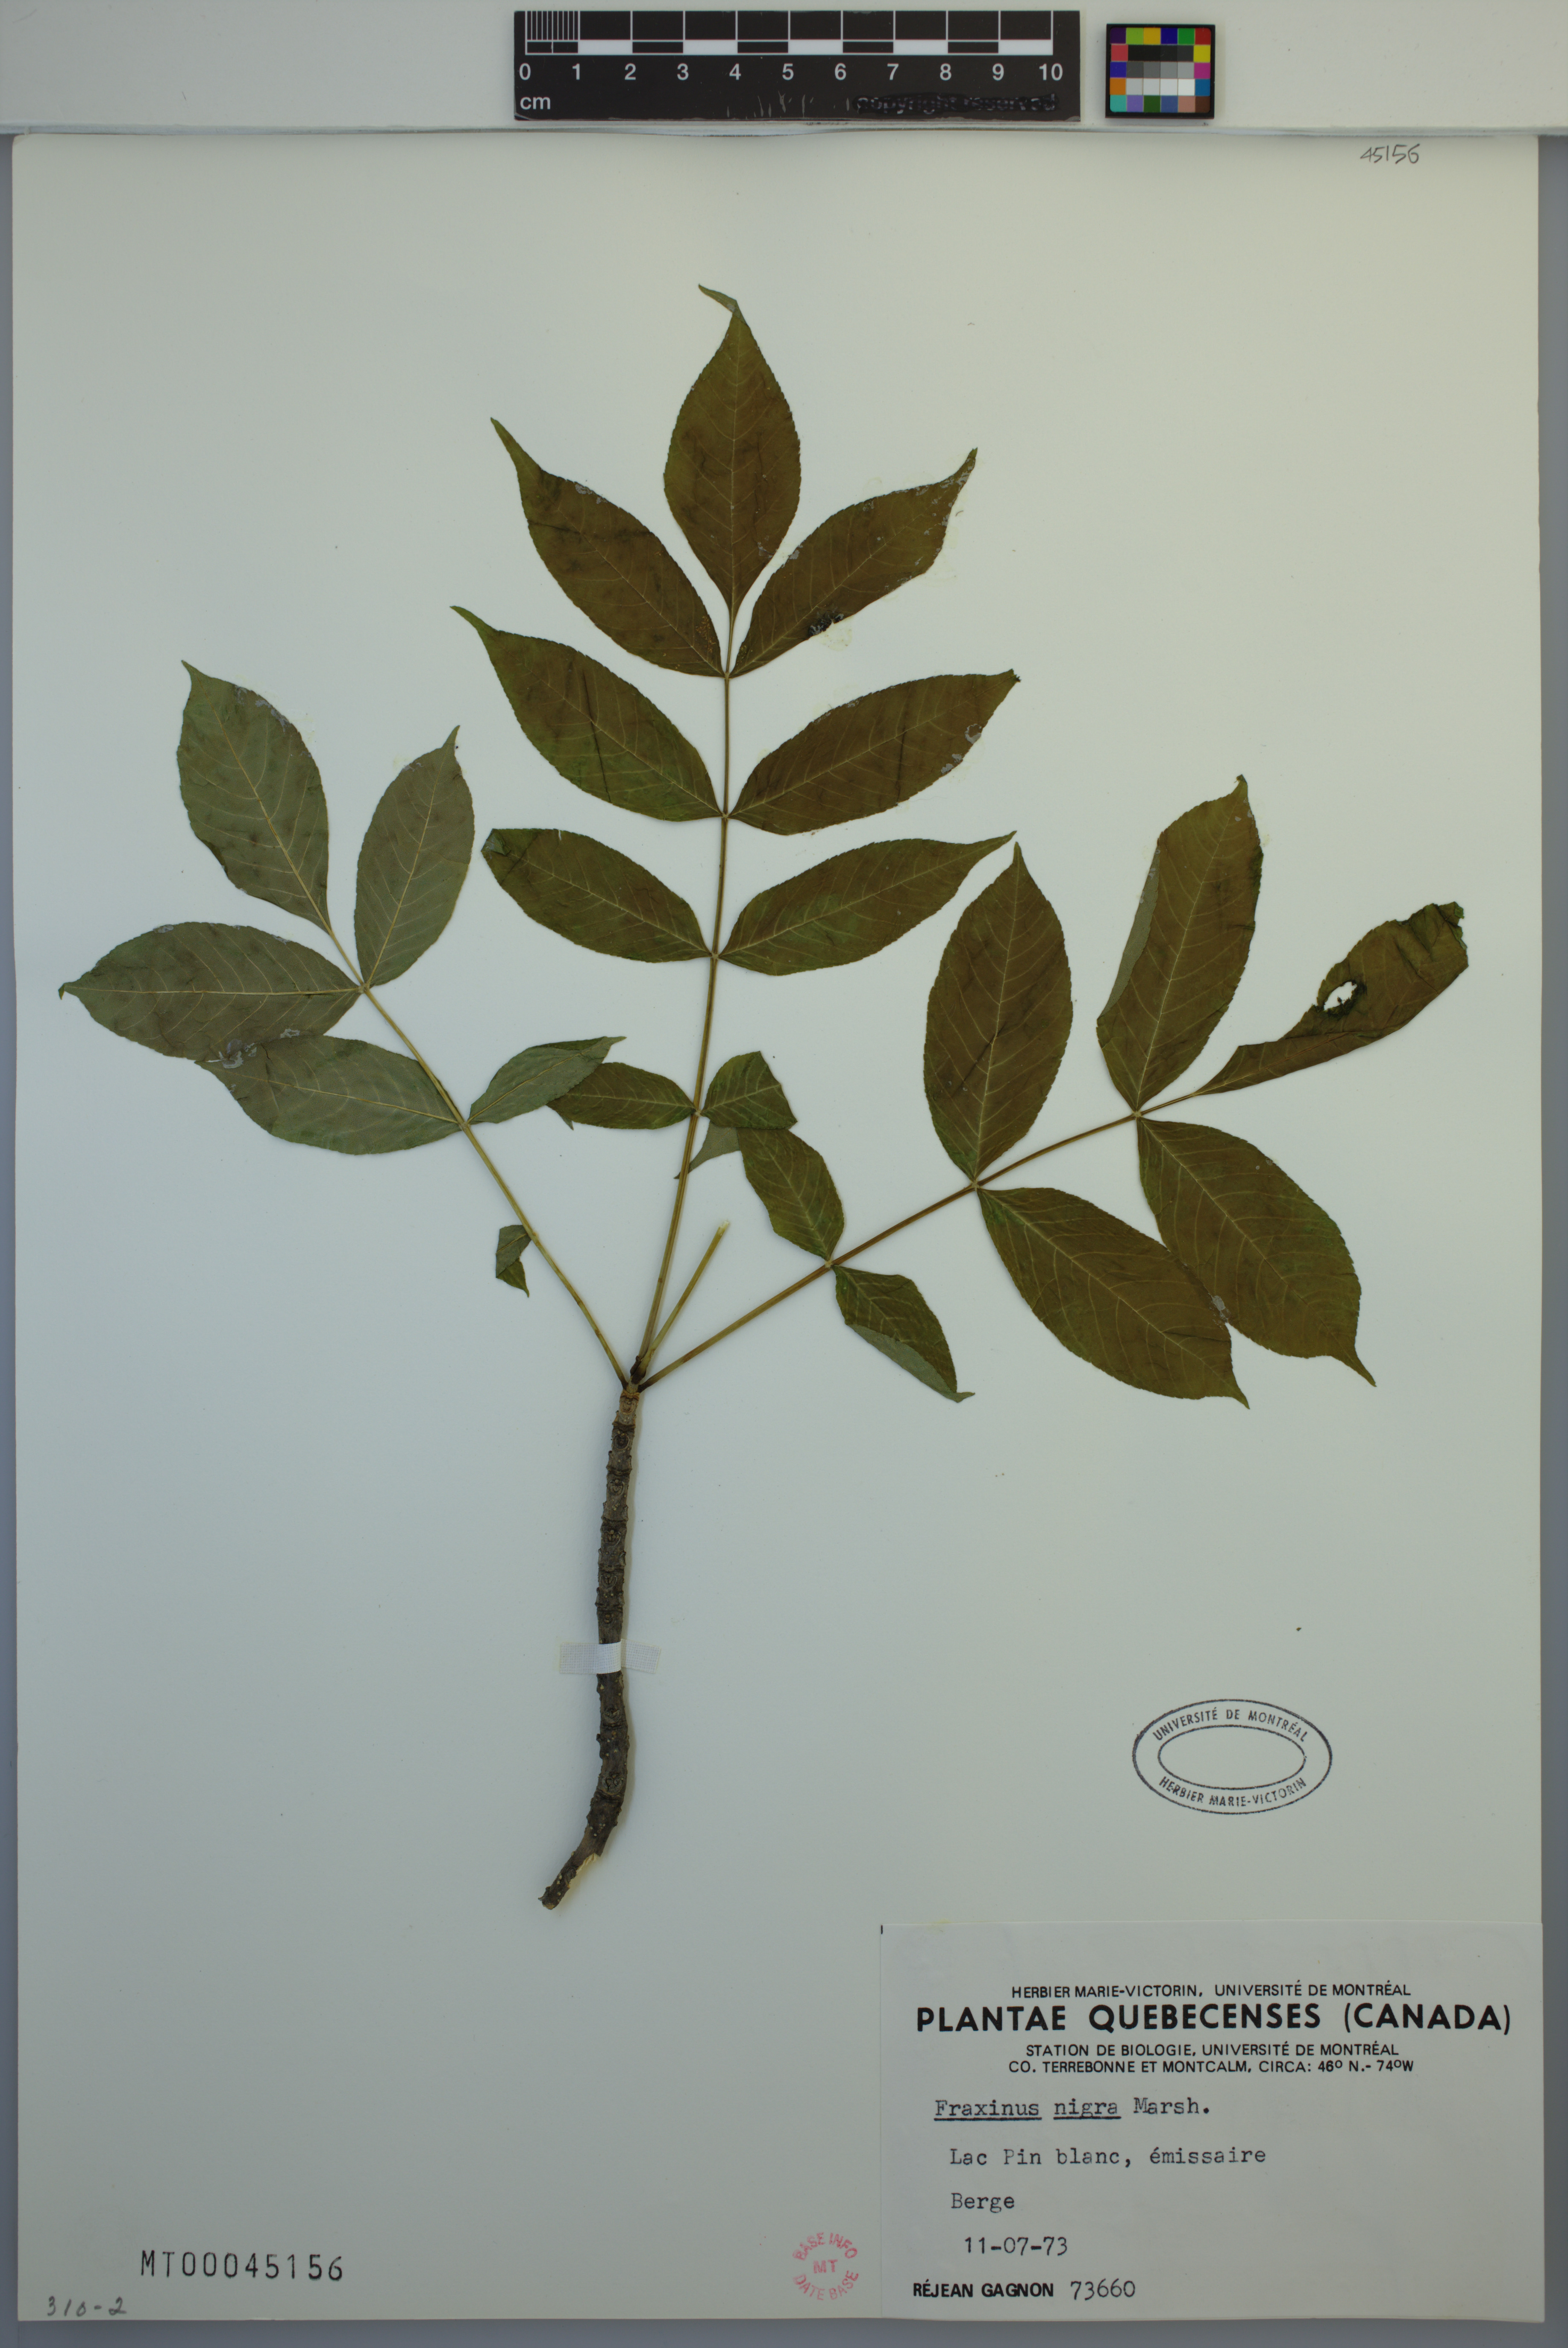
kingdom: Plantae
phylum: Tracheophyta
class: Magnoliopsida
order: Lamiales
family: Oleaceae
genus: Fraxinus
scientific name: Fraxinus nigra
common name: Black ash
